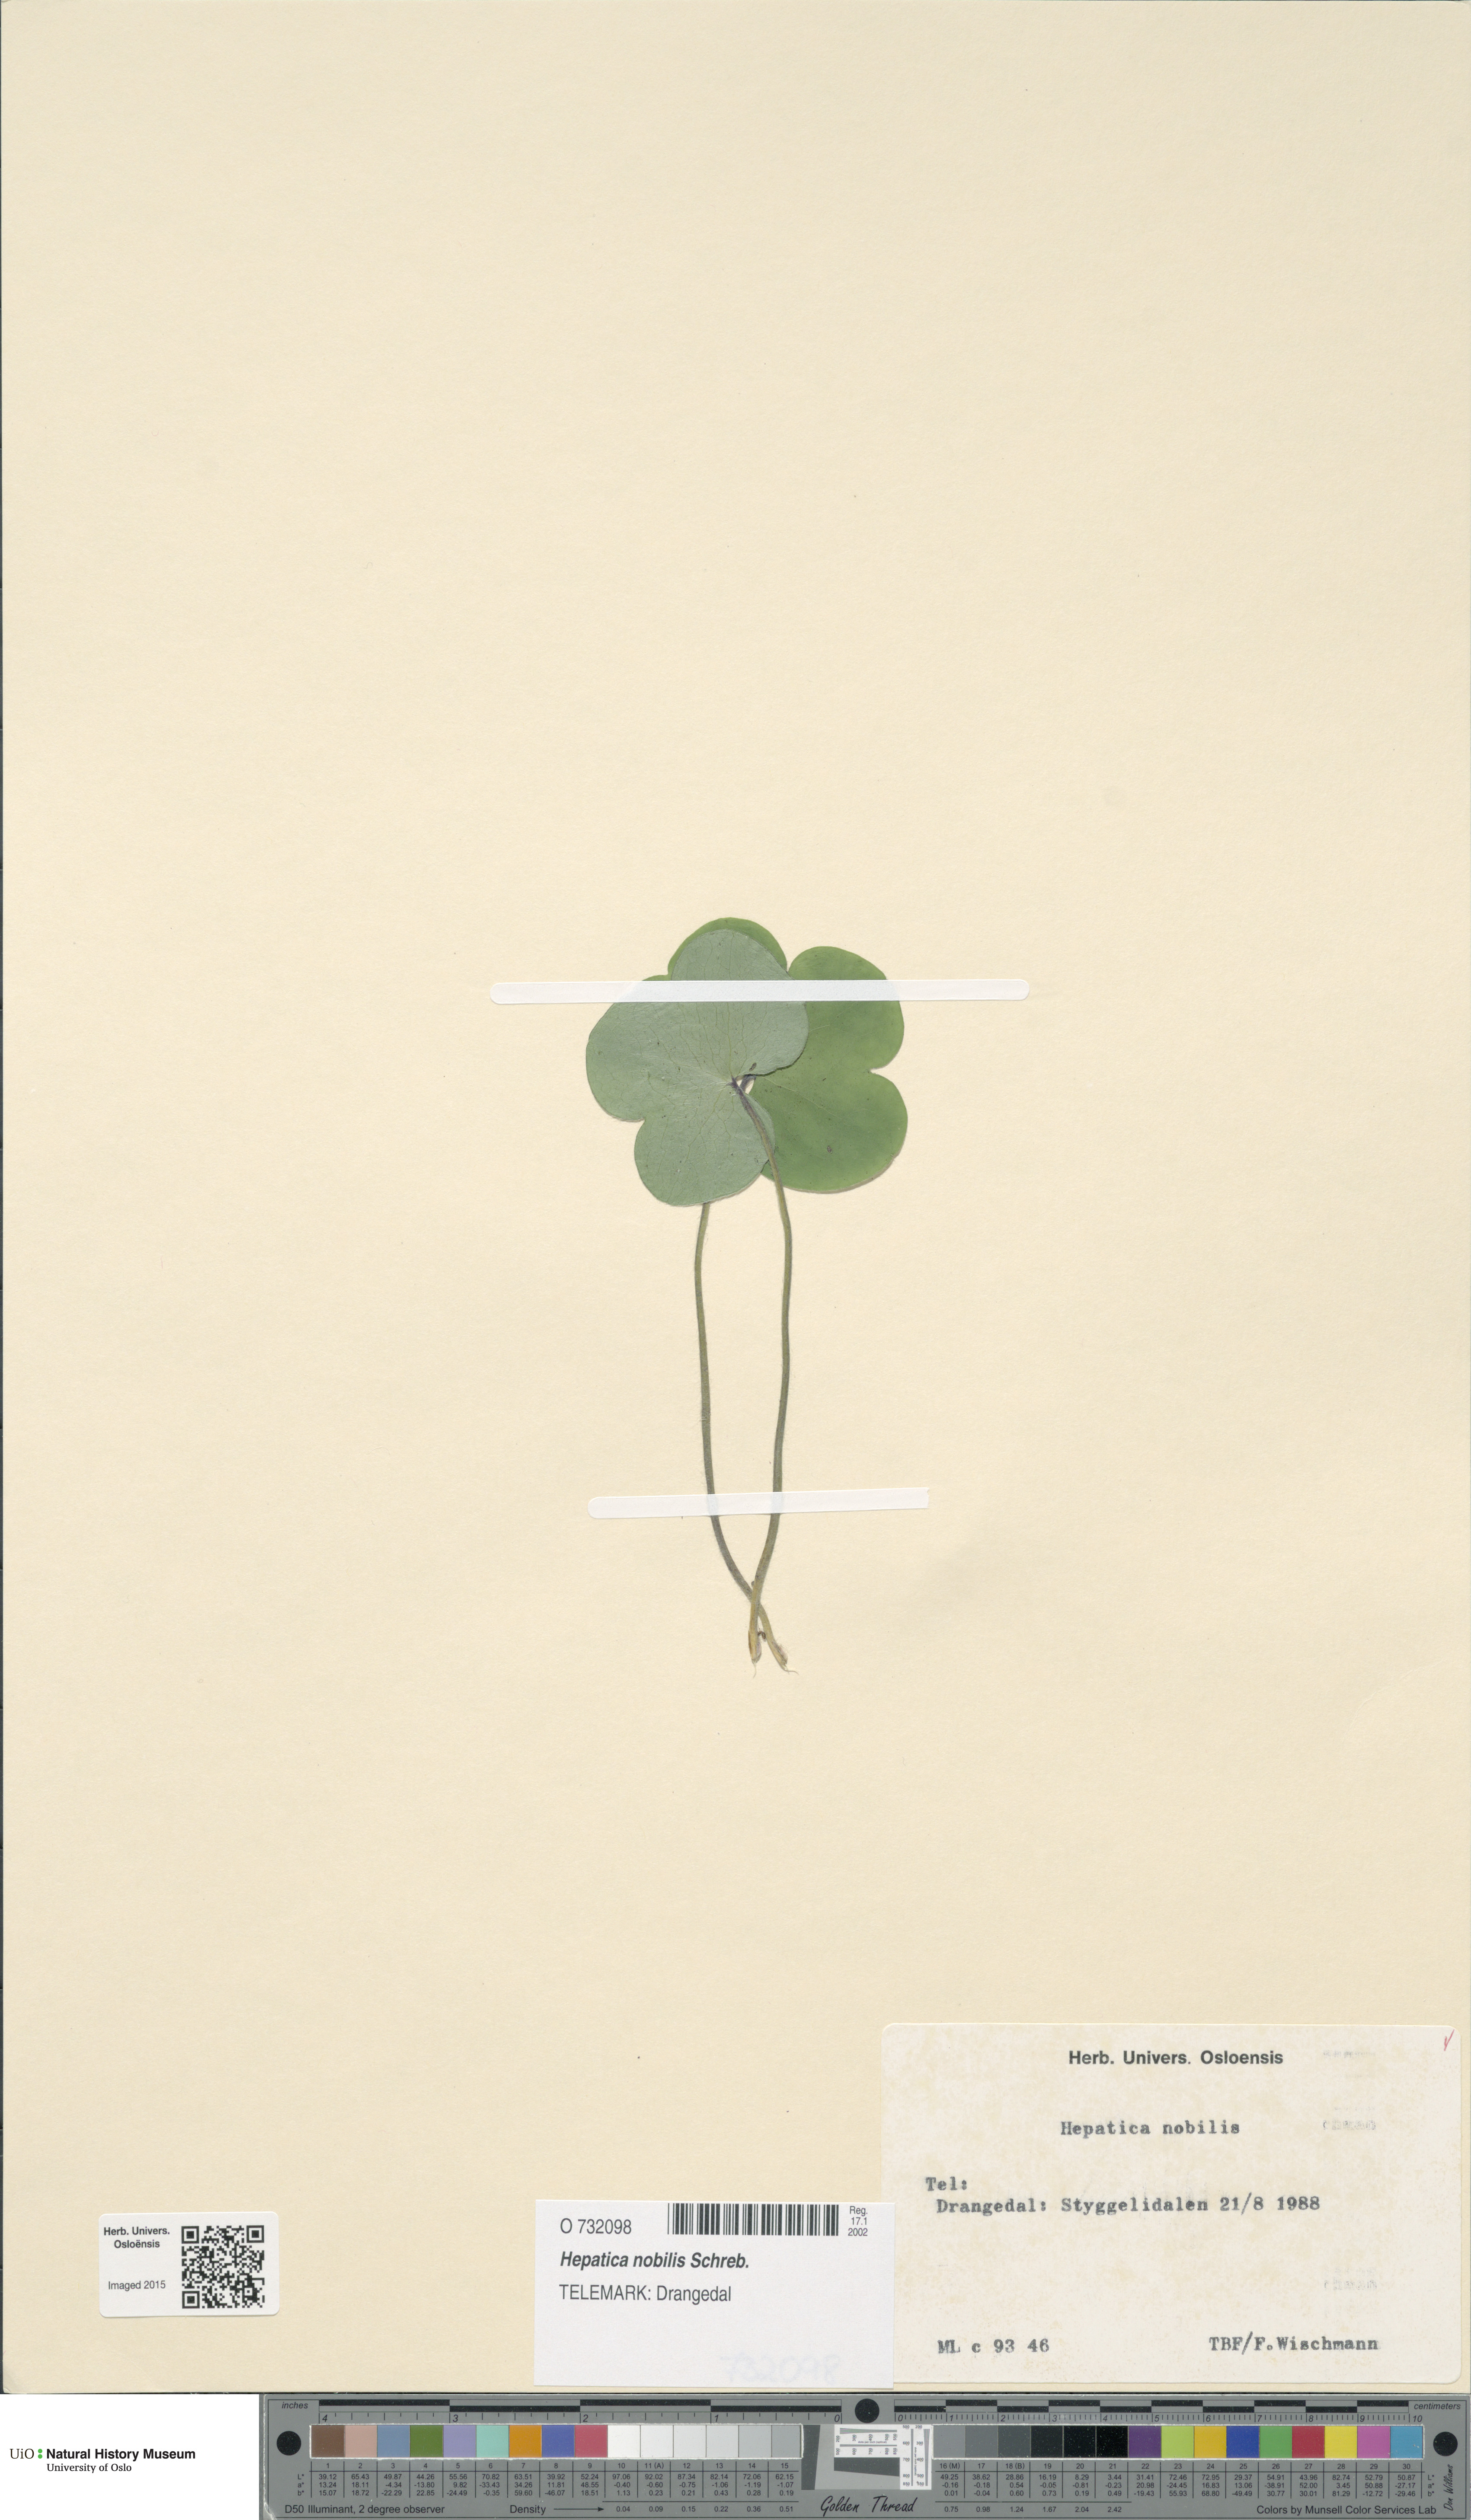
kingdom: Plantae
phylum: Tracheophyta
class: Magnoliopsida
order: Ranunculales
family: Ranunculaceae
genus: Hepatica
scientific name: Hepatica nobilis
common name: Liverleaf
